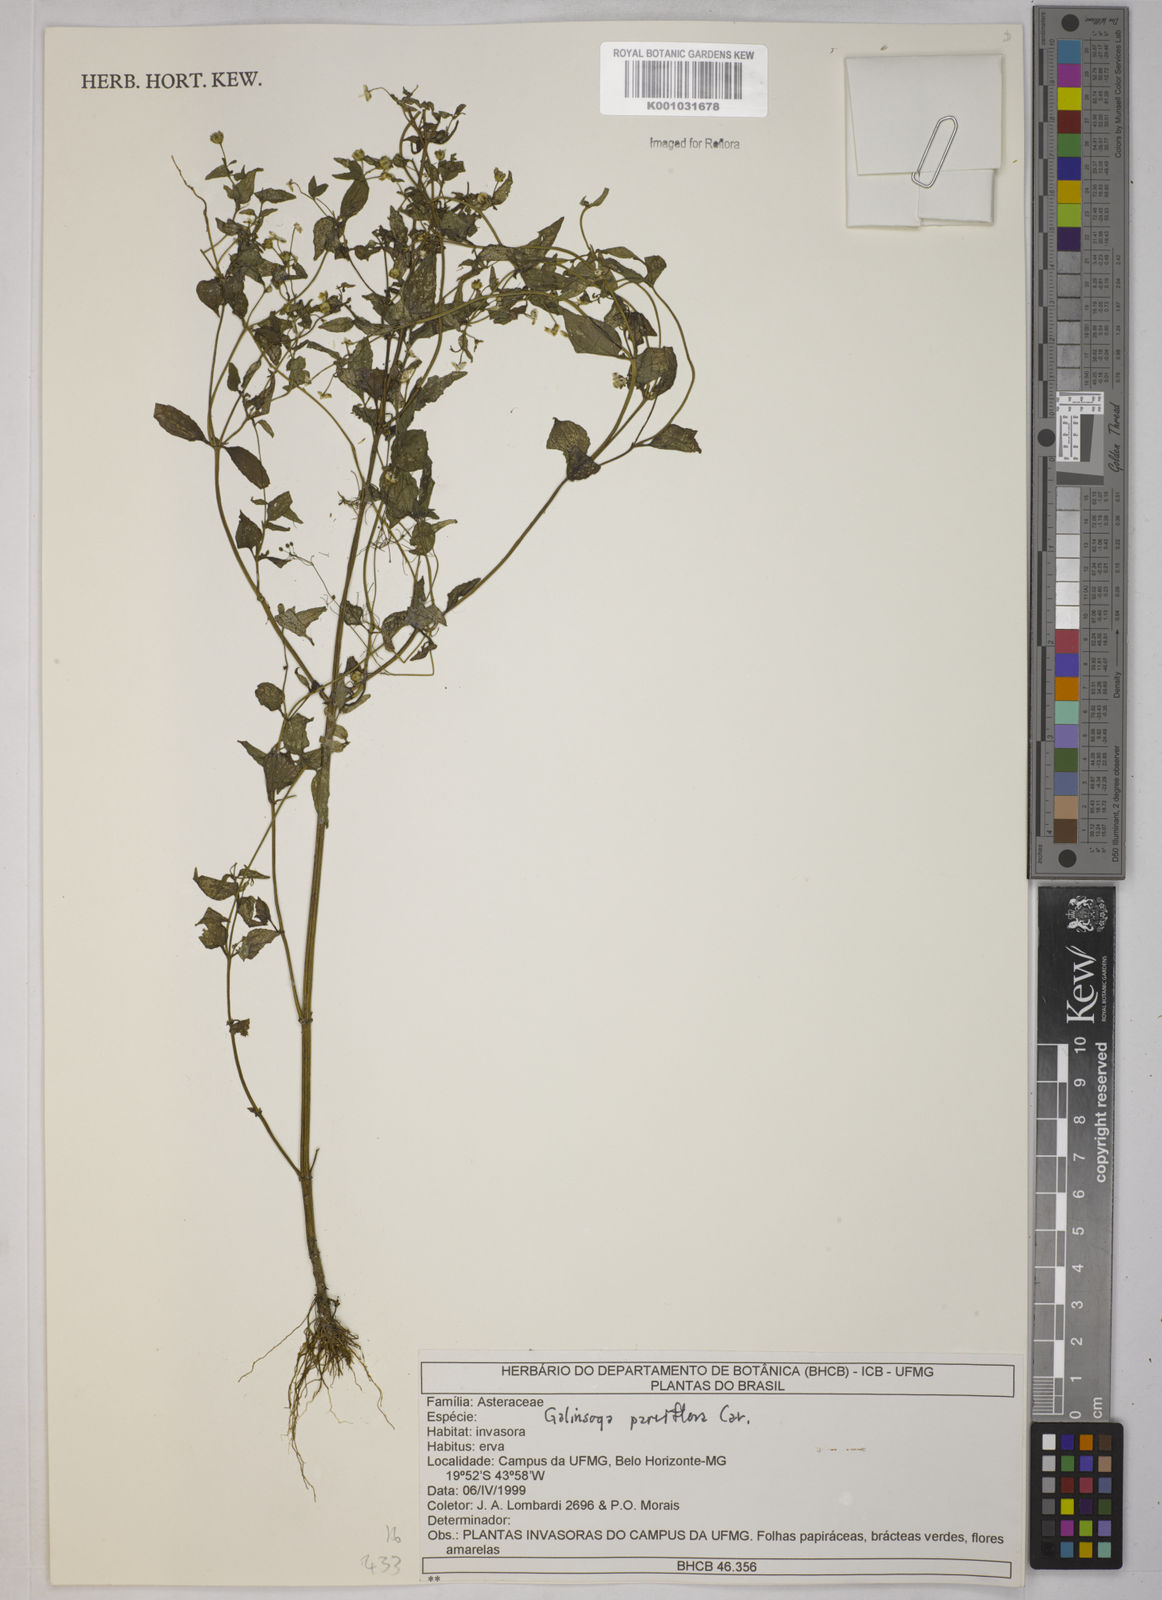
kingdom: Plantae
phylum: Tracheophyta
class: Magnoliopsida
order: Asterales
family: Asteraceae
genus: Galinsoga
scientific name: Galinsoga parviflora
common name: Gallant soldier
